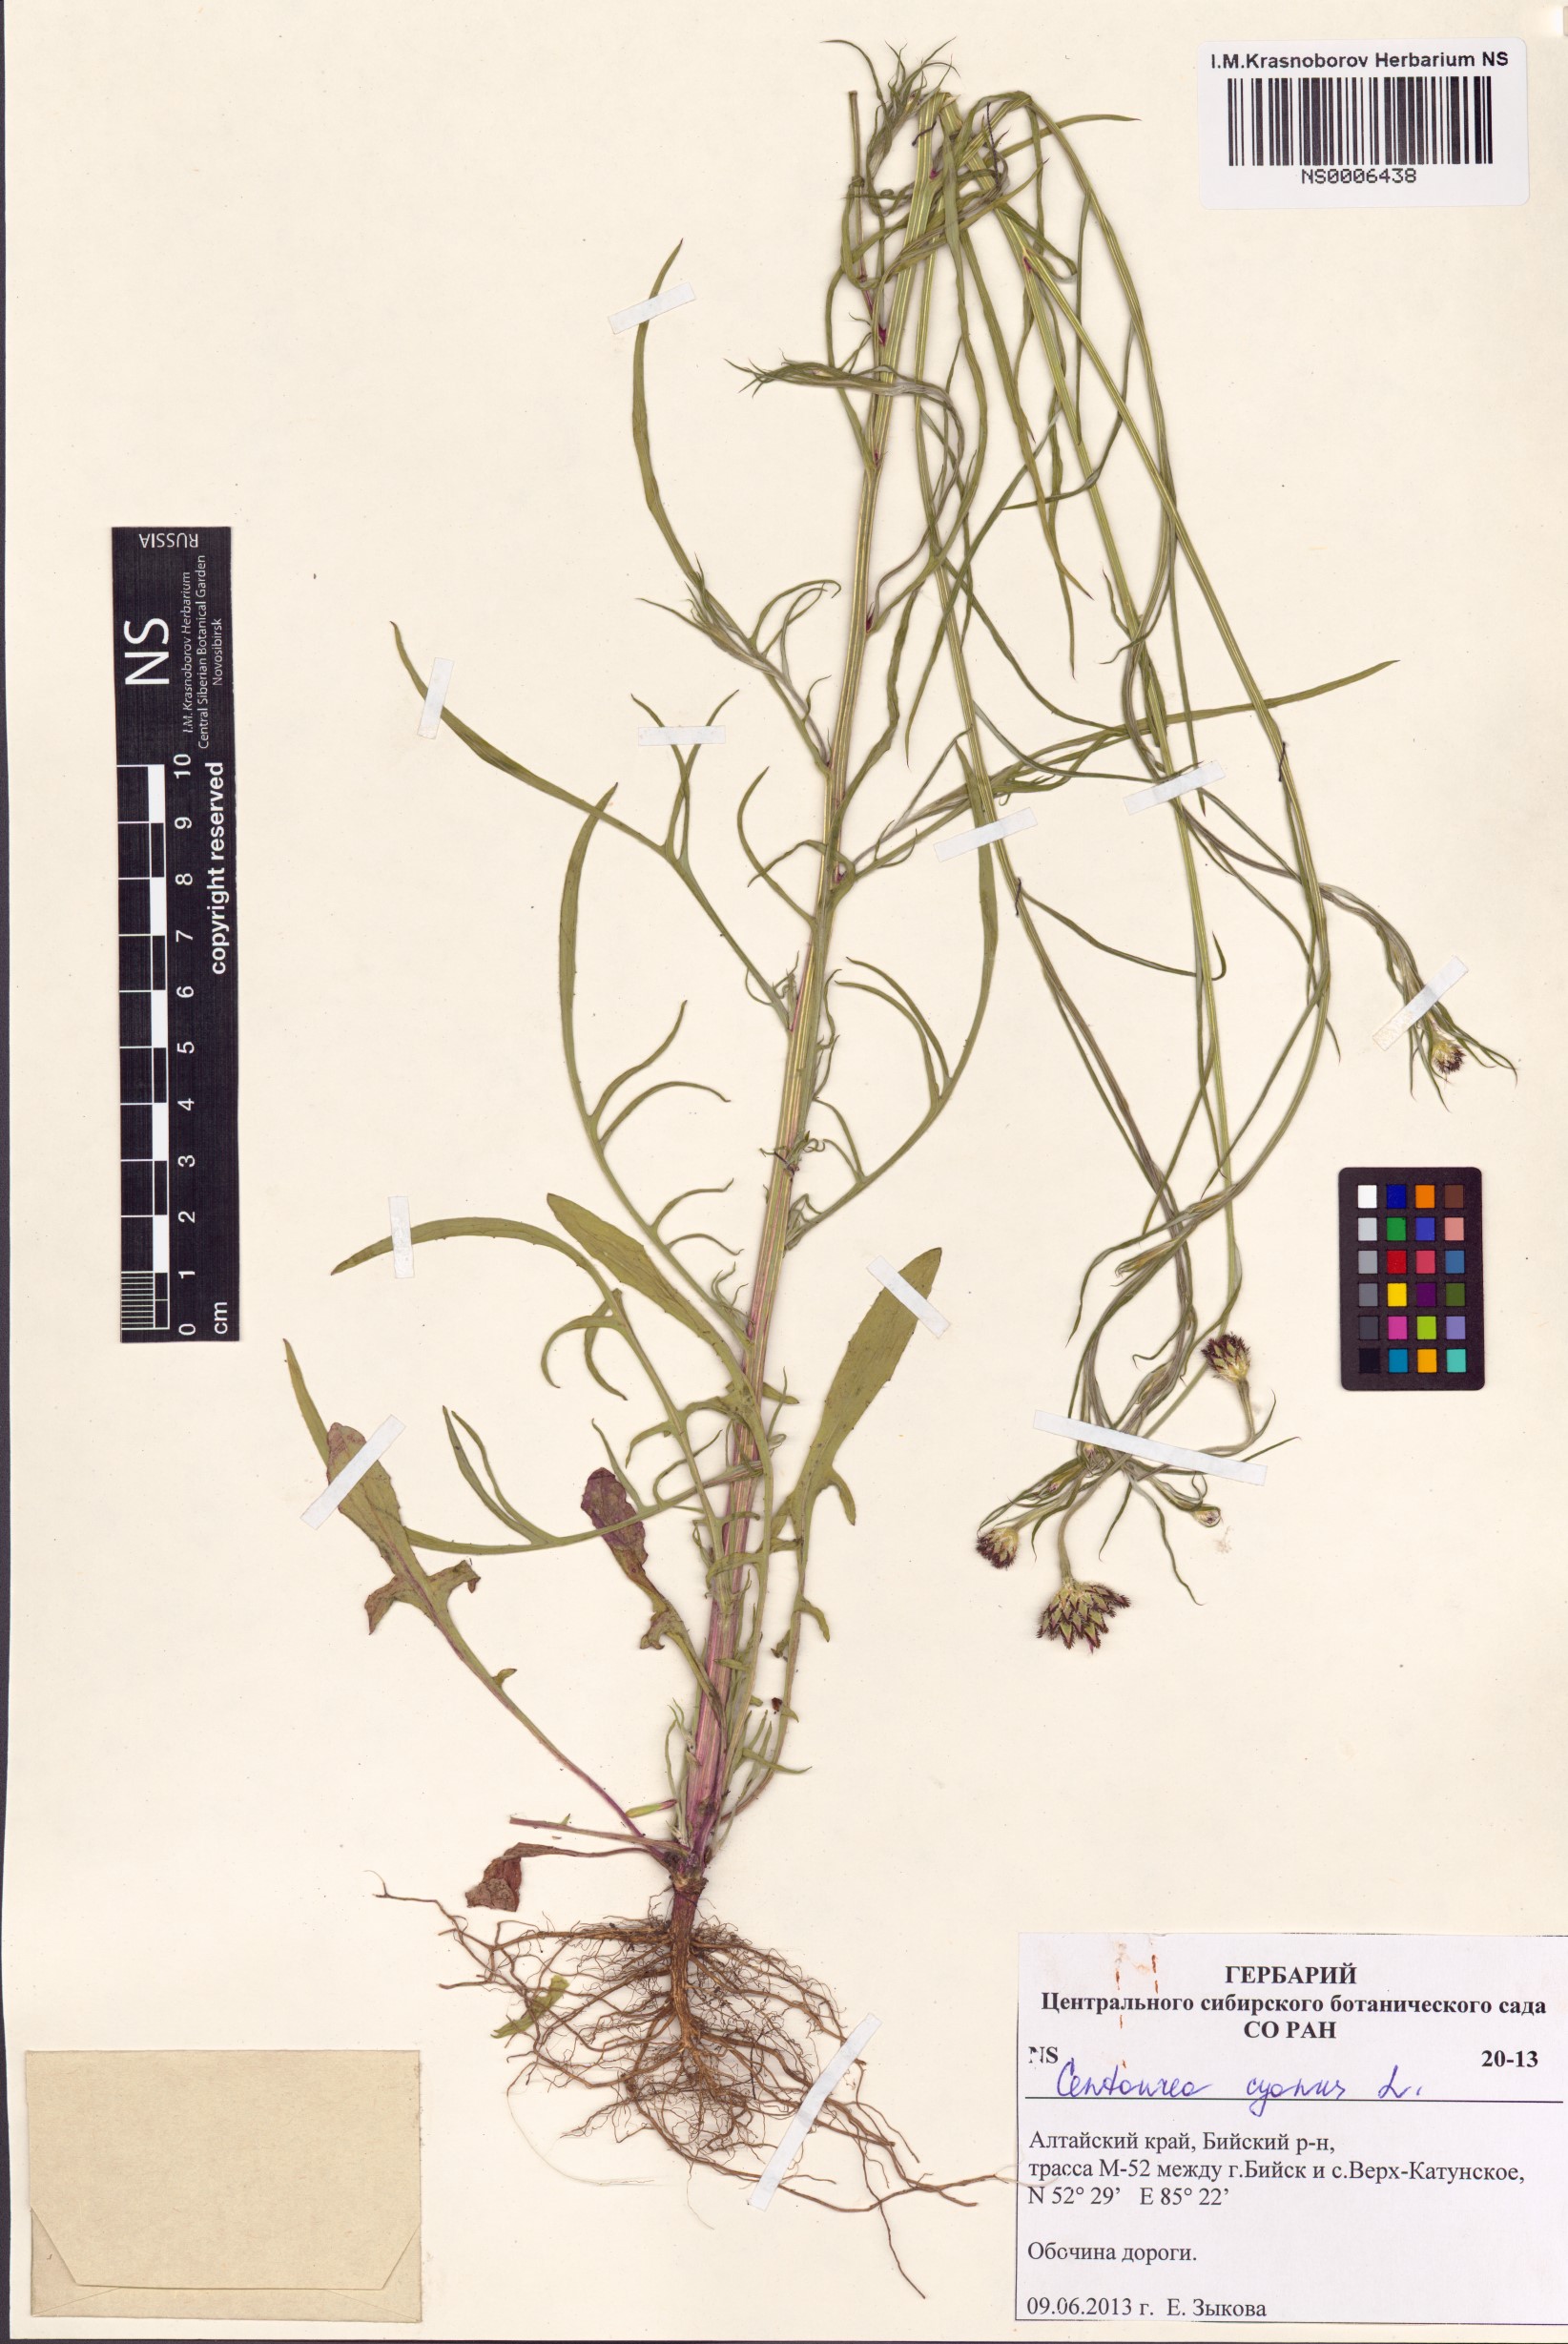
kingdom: Plantae
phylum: Tracheophyta
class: Magnoliopsida
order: Asterales
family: Asteraceae
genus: Centaurea
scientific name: Centaurea cyanus
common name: Cornflower
